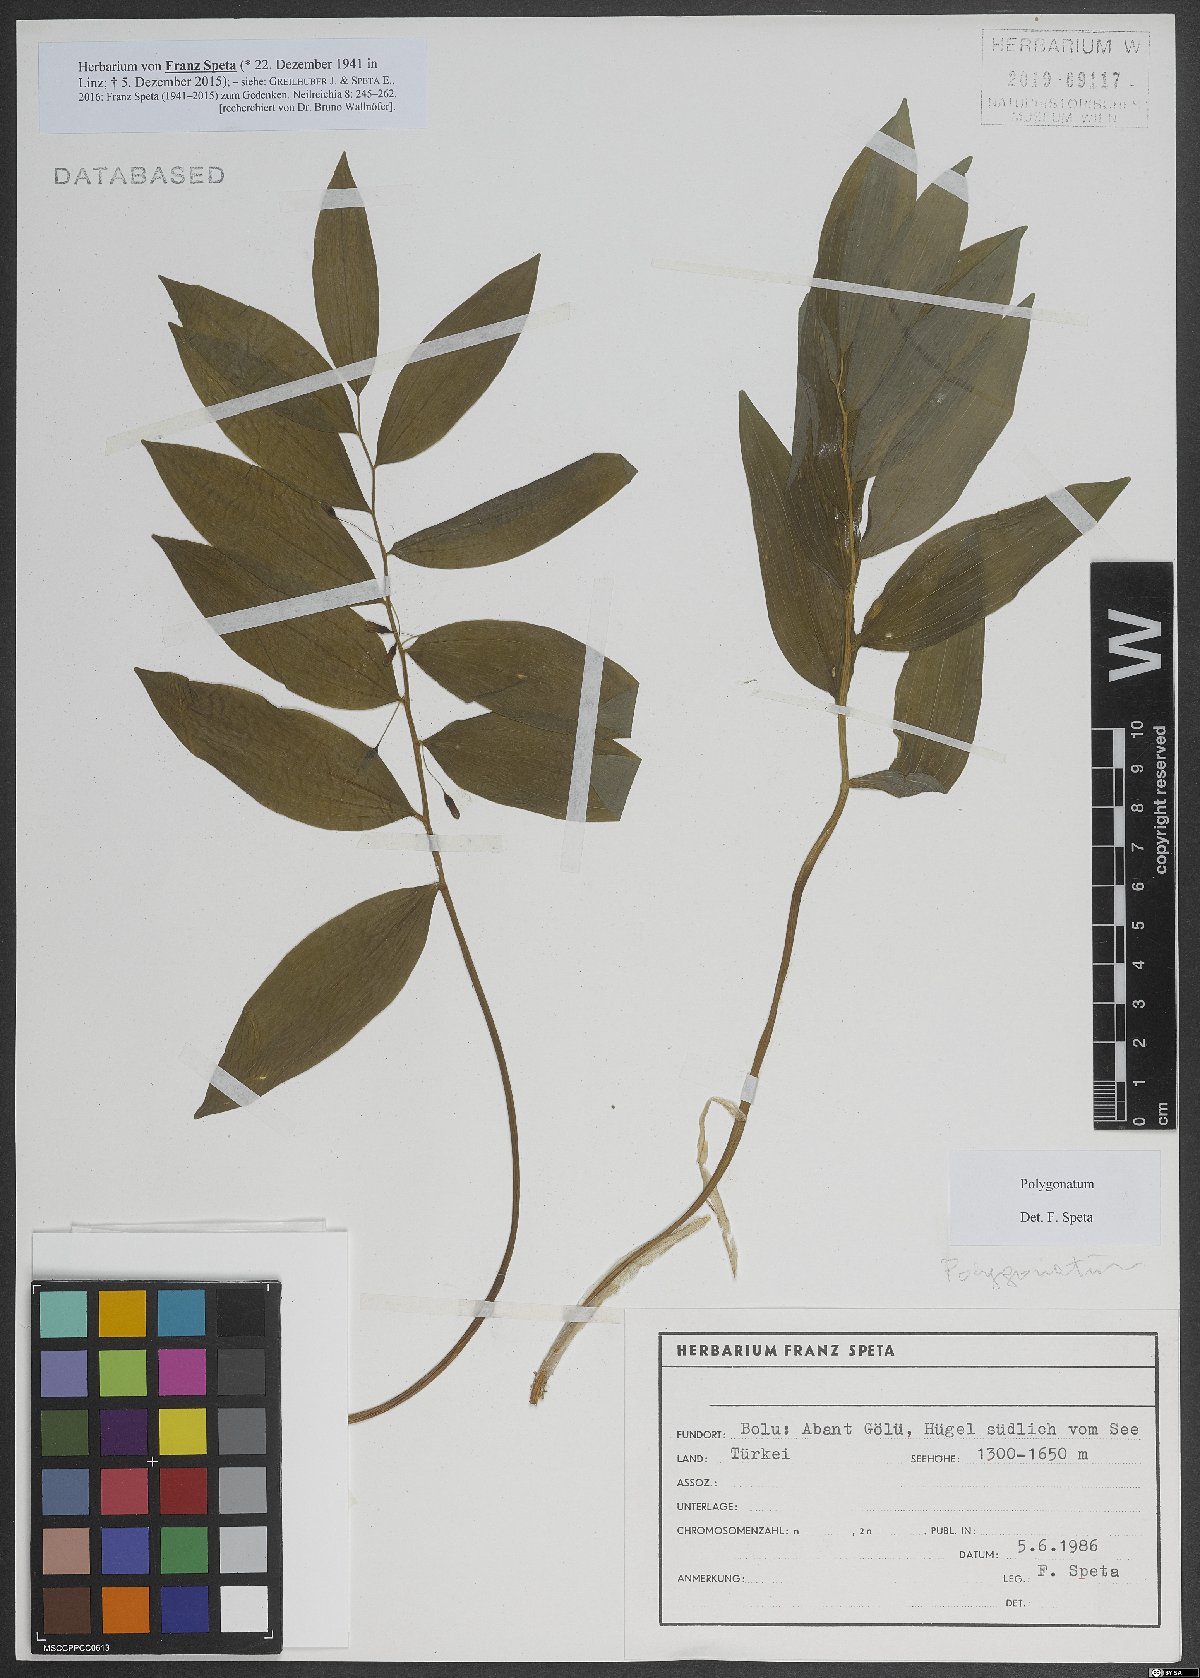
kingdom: Plantae
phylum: Tracheophyta
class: Liliopsida
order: Asparagales
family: Asparagaceae
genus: Polygonatum
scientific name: Polygonatum
